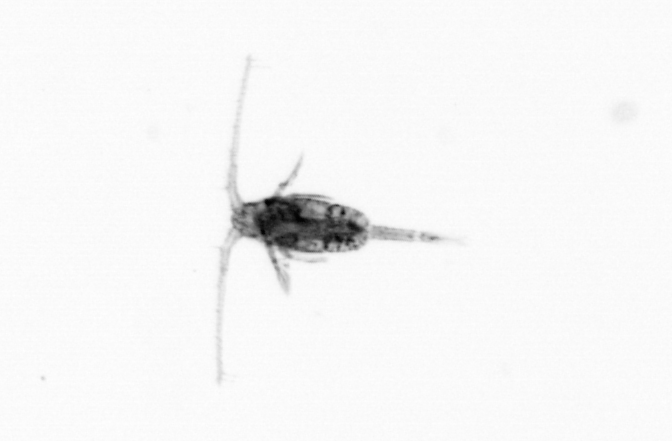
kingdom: Animalia
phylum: Arthropoda
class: Copepoda
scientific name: Copepoda
